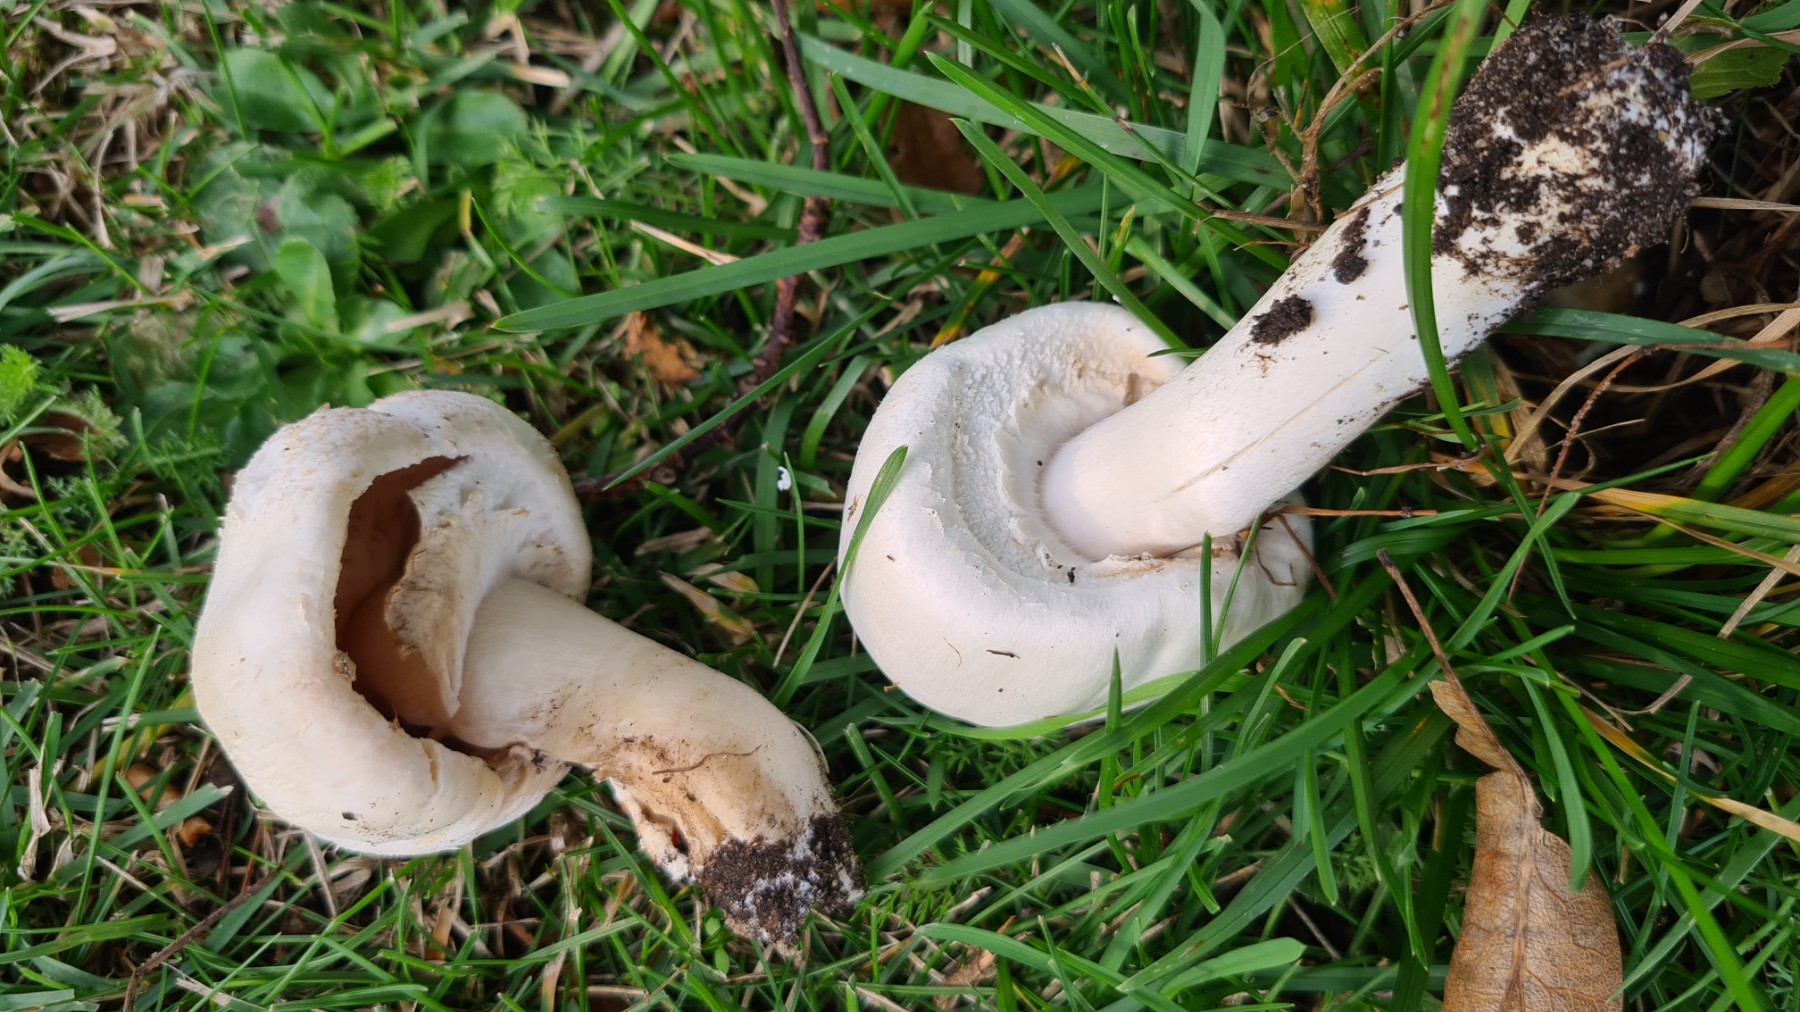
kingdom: Fungi
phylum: Basidiomycota
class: Agaricomycetes
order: Agaricales
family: Agaricaceae
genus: Agaricus
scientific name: Agaricus arvensis
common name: ager-champignon
